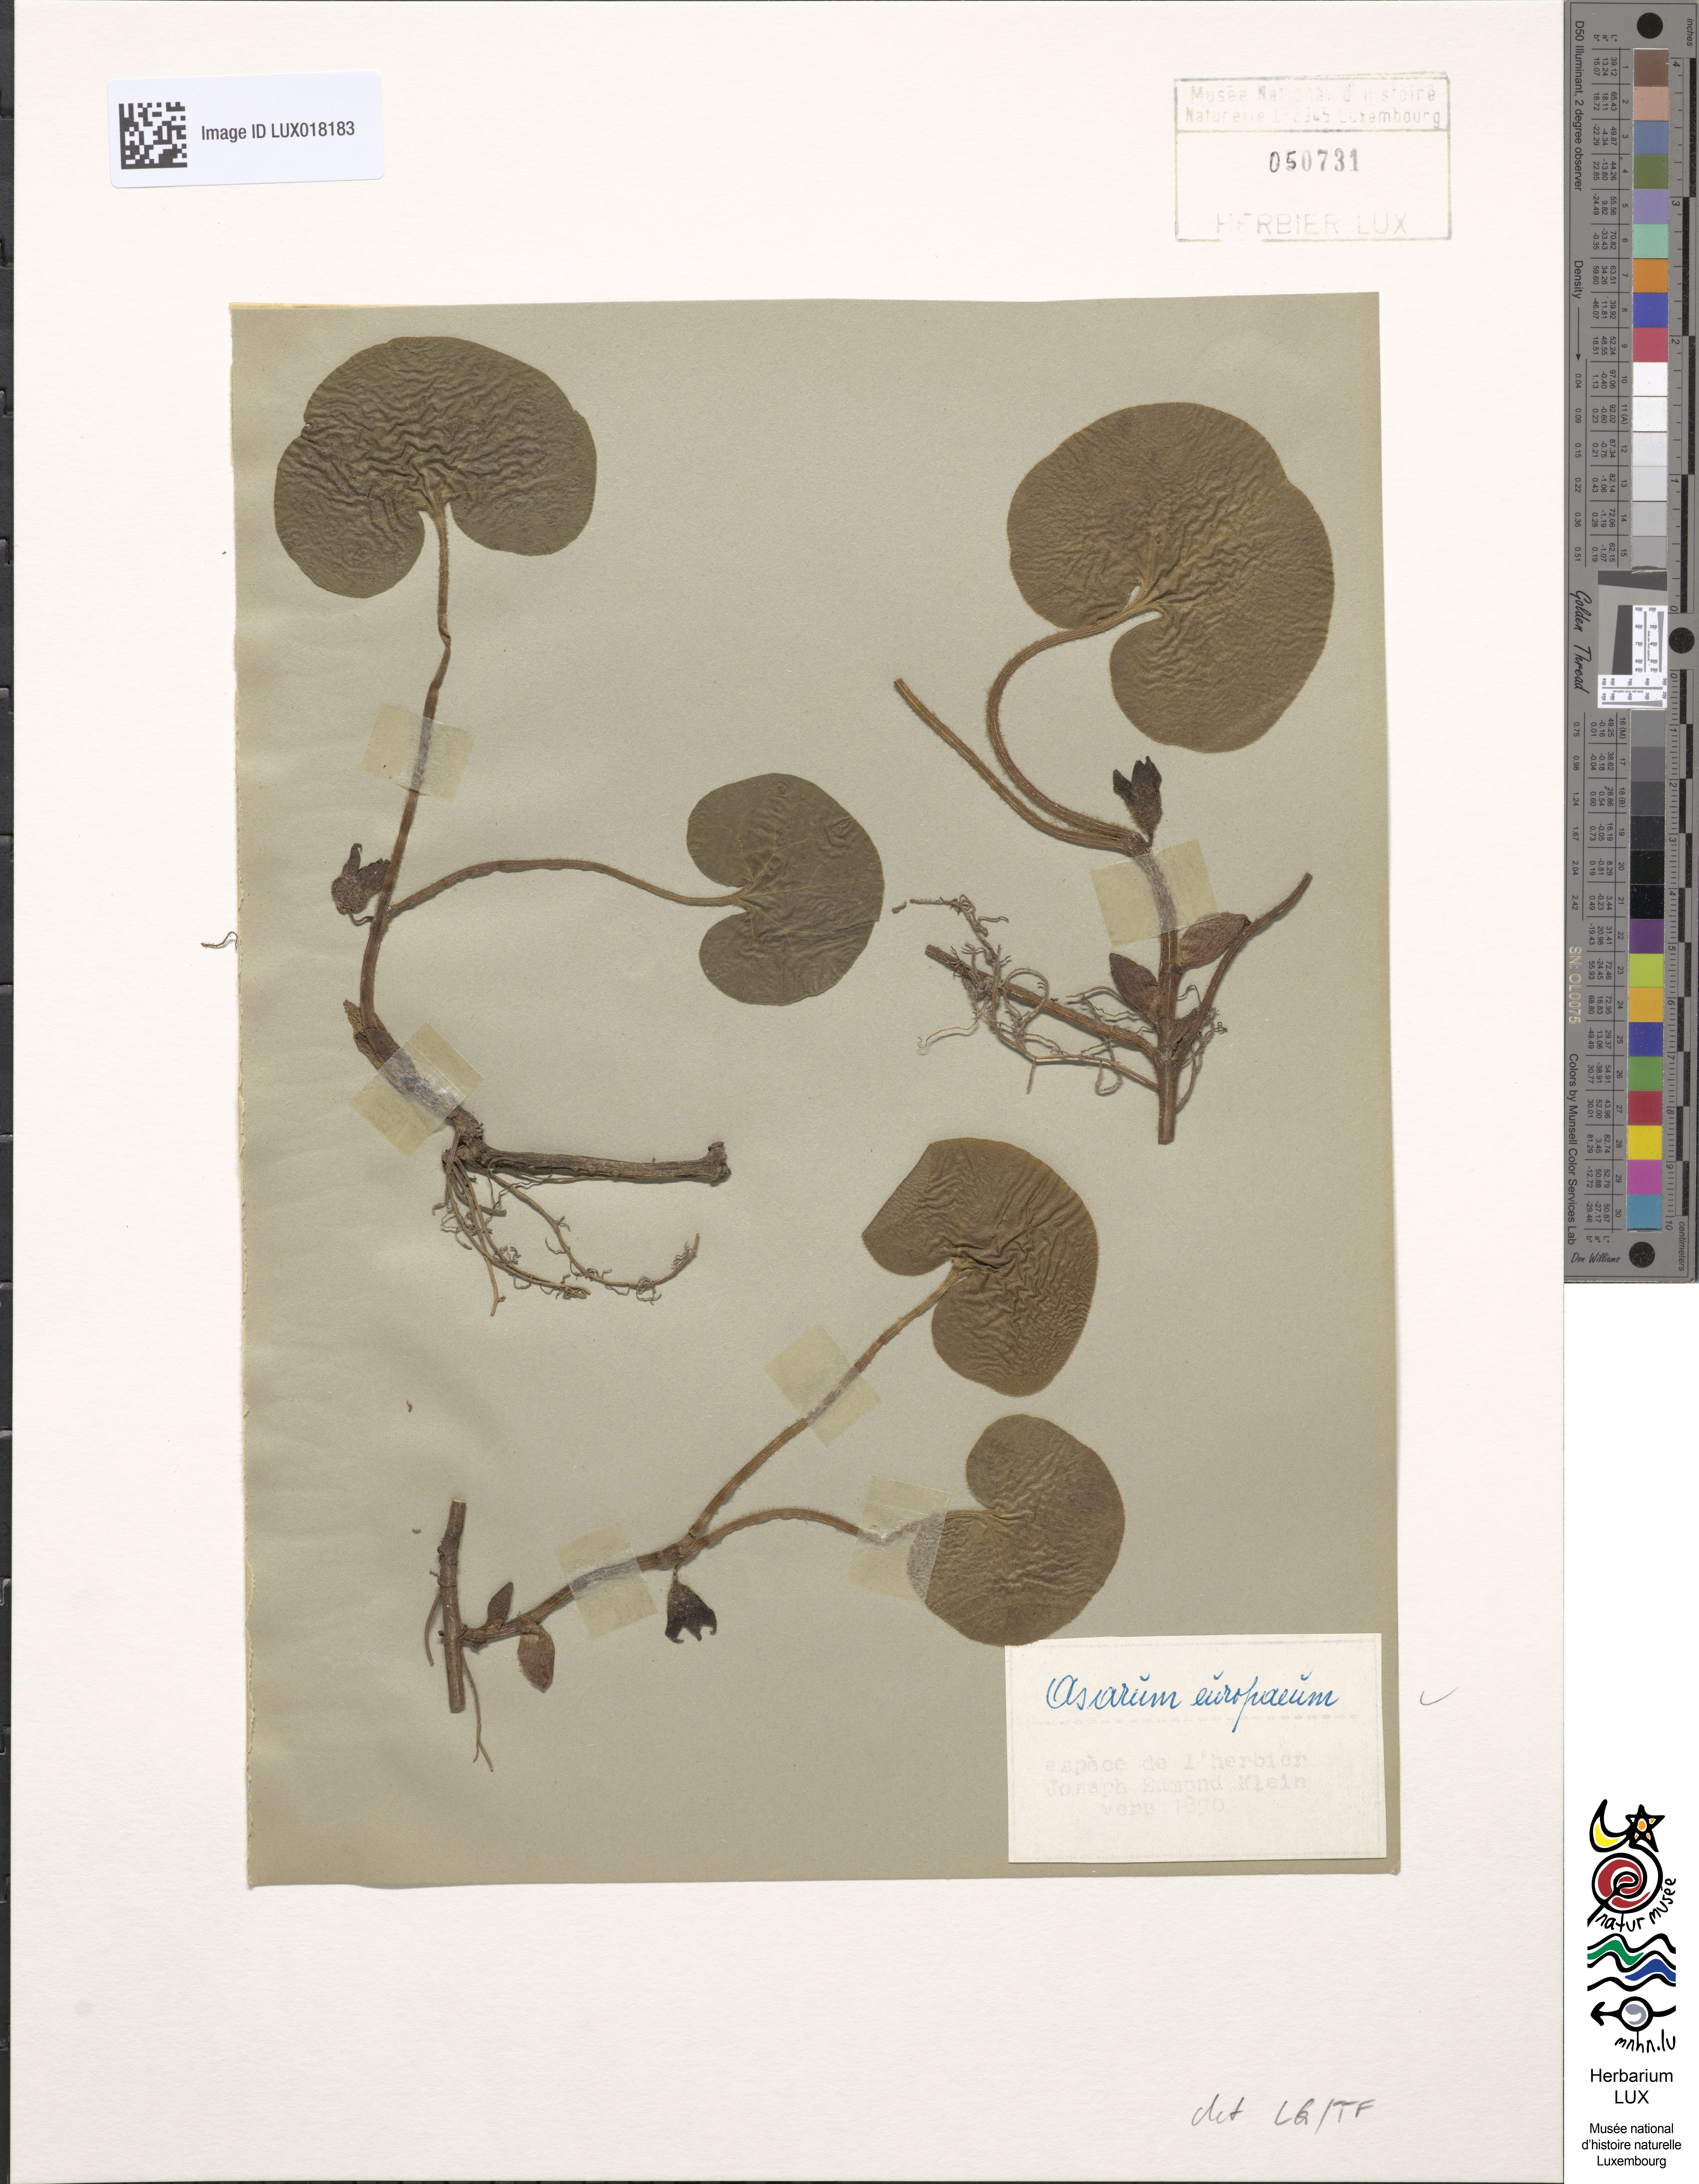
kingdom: Plantae
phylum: Tracheophyta
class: Magnoliopsida
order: Piperales
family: Aristolochiaceae
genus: Asarum
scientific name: Asarum europaeum
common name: Asarabacca
